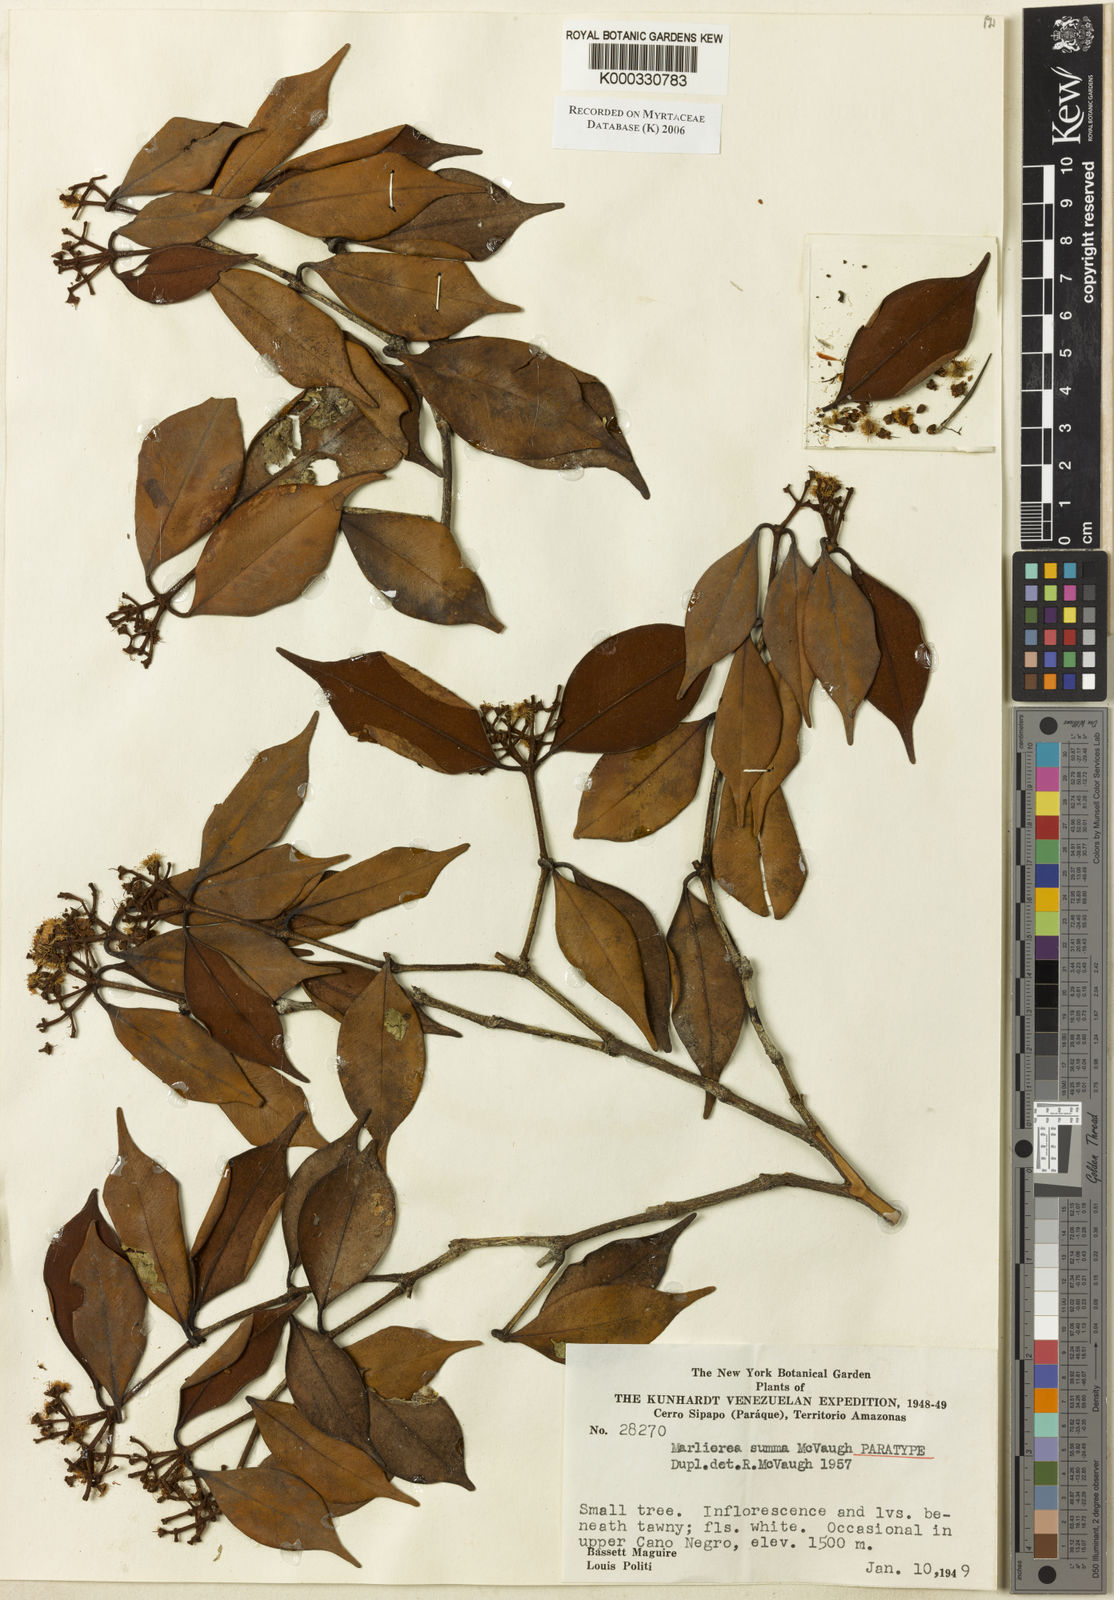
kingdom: Plantae
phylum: Tracheophyta
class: Magnoliopsida
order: Myrtales
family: Myrtaceae
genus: Myrcia
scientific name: Myrcia summa
